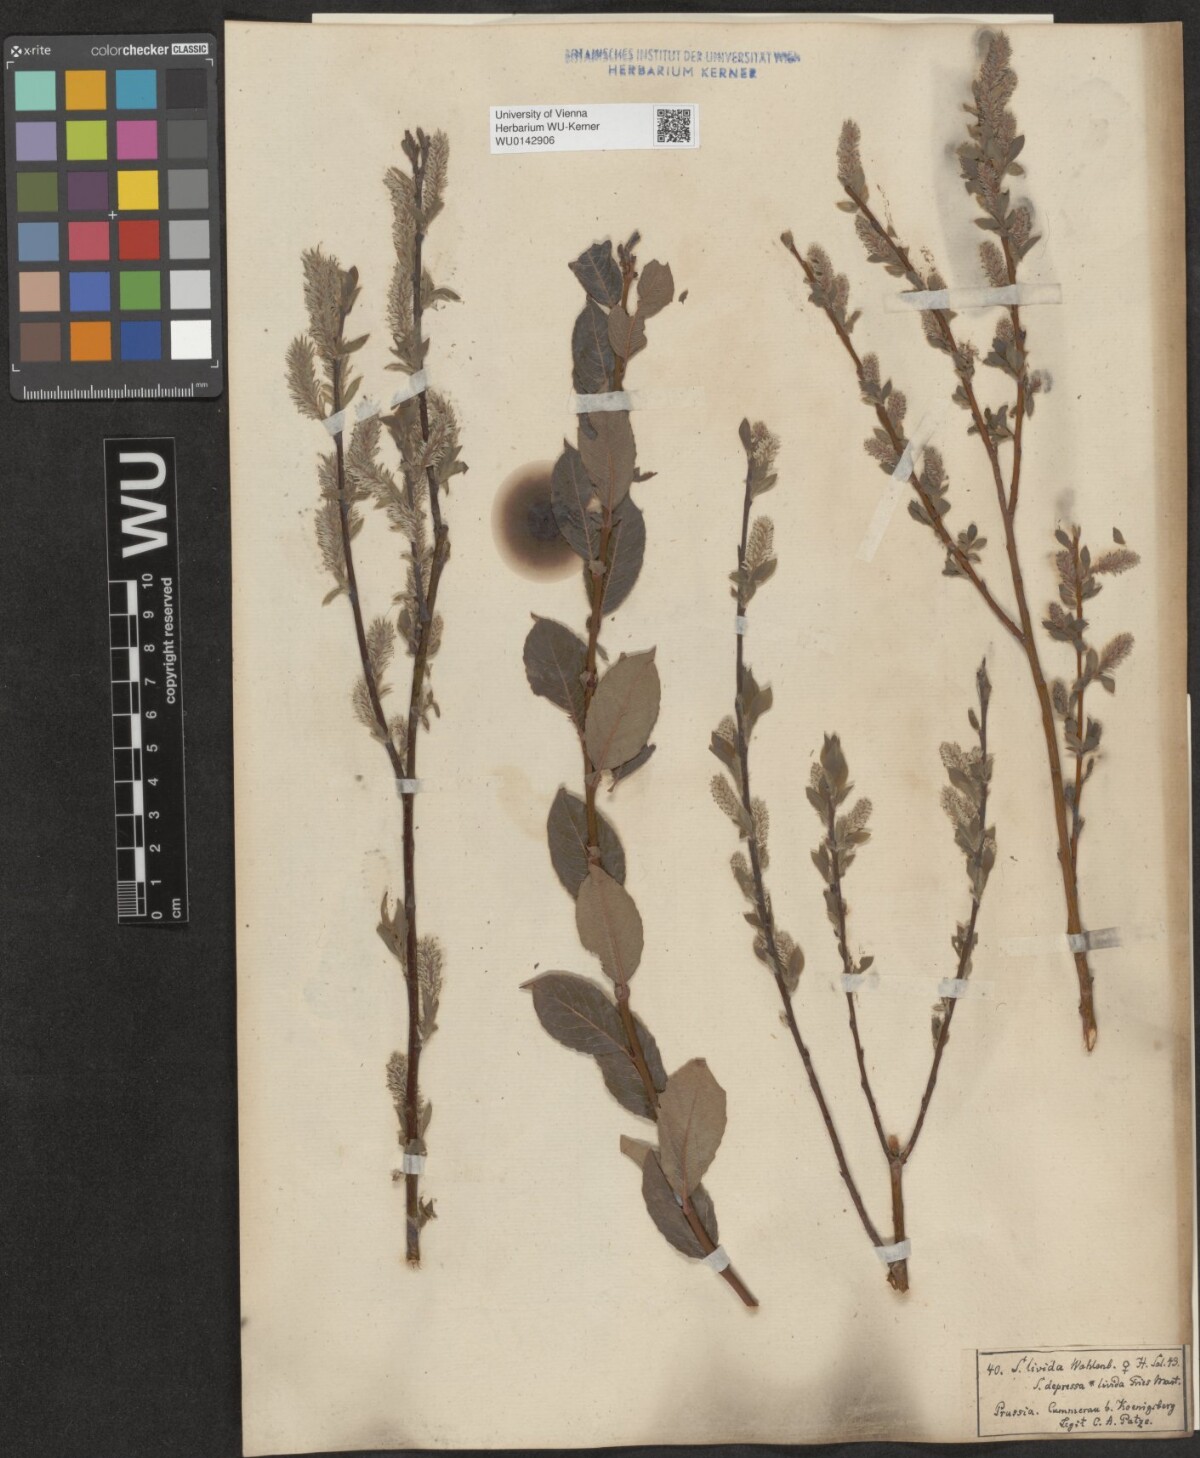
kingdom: Plantae
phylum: Tracheophyta
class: Magnoliopsida
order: Malpighiales
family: Salicaceae
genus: Salix
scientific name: Salix starkeana
